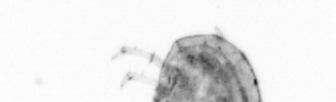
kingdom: Animalia
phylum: Arthropoda
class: Copepoda
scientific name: Copepoda
